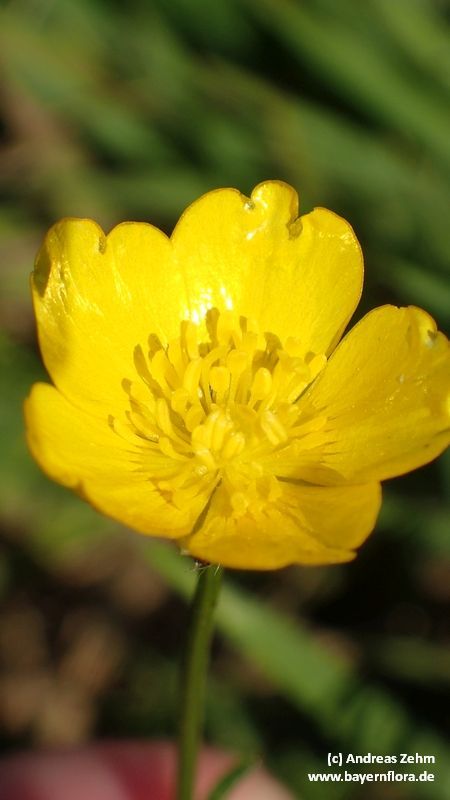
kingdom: Plantae
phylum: Tracheophyta
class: Magnoliopsida
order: Ranunculales
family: Ranunculaceae
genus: Ranunculus
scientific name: Ranunculus polyanthemos
